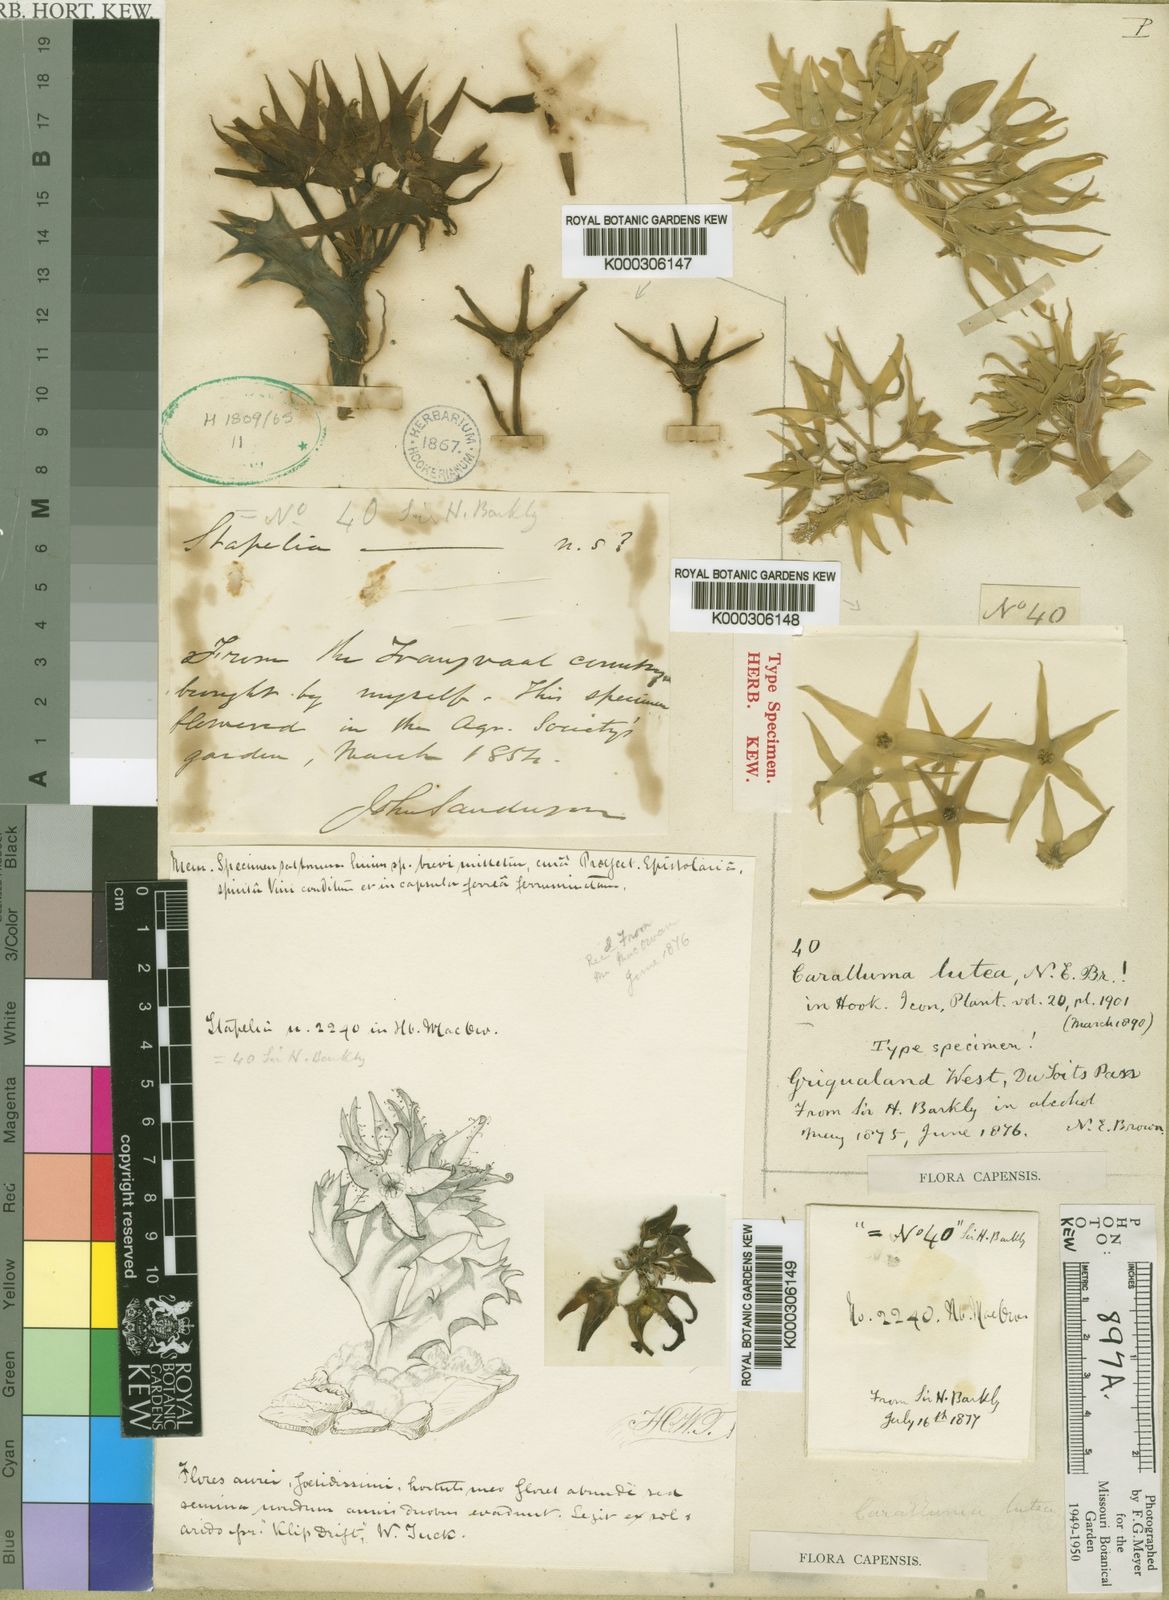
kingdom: Plantae
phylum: Tracheophyta
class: Magnoliopsida
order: Gentianales
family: Apocynaceae
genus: Ceropegia
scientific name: Ceropegia lutea
